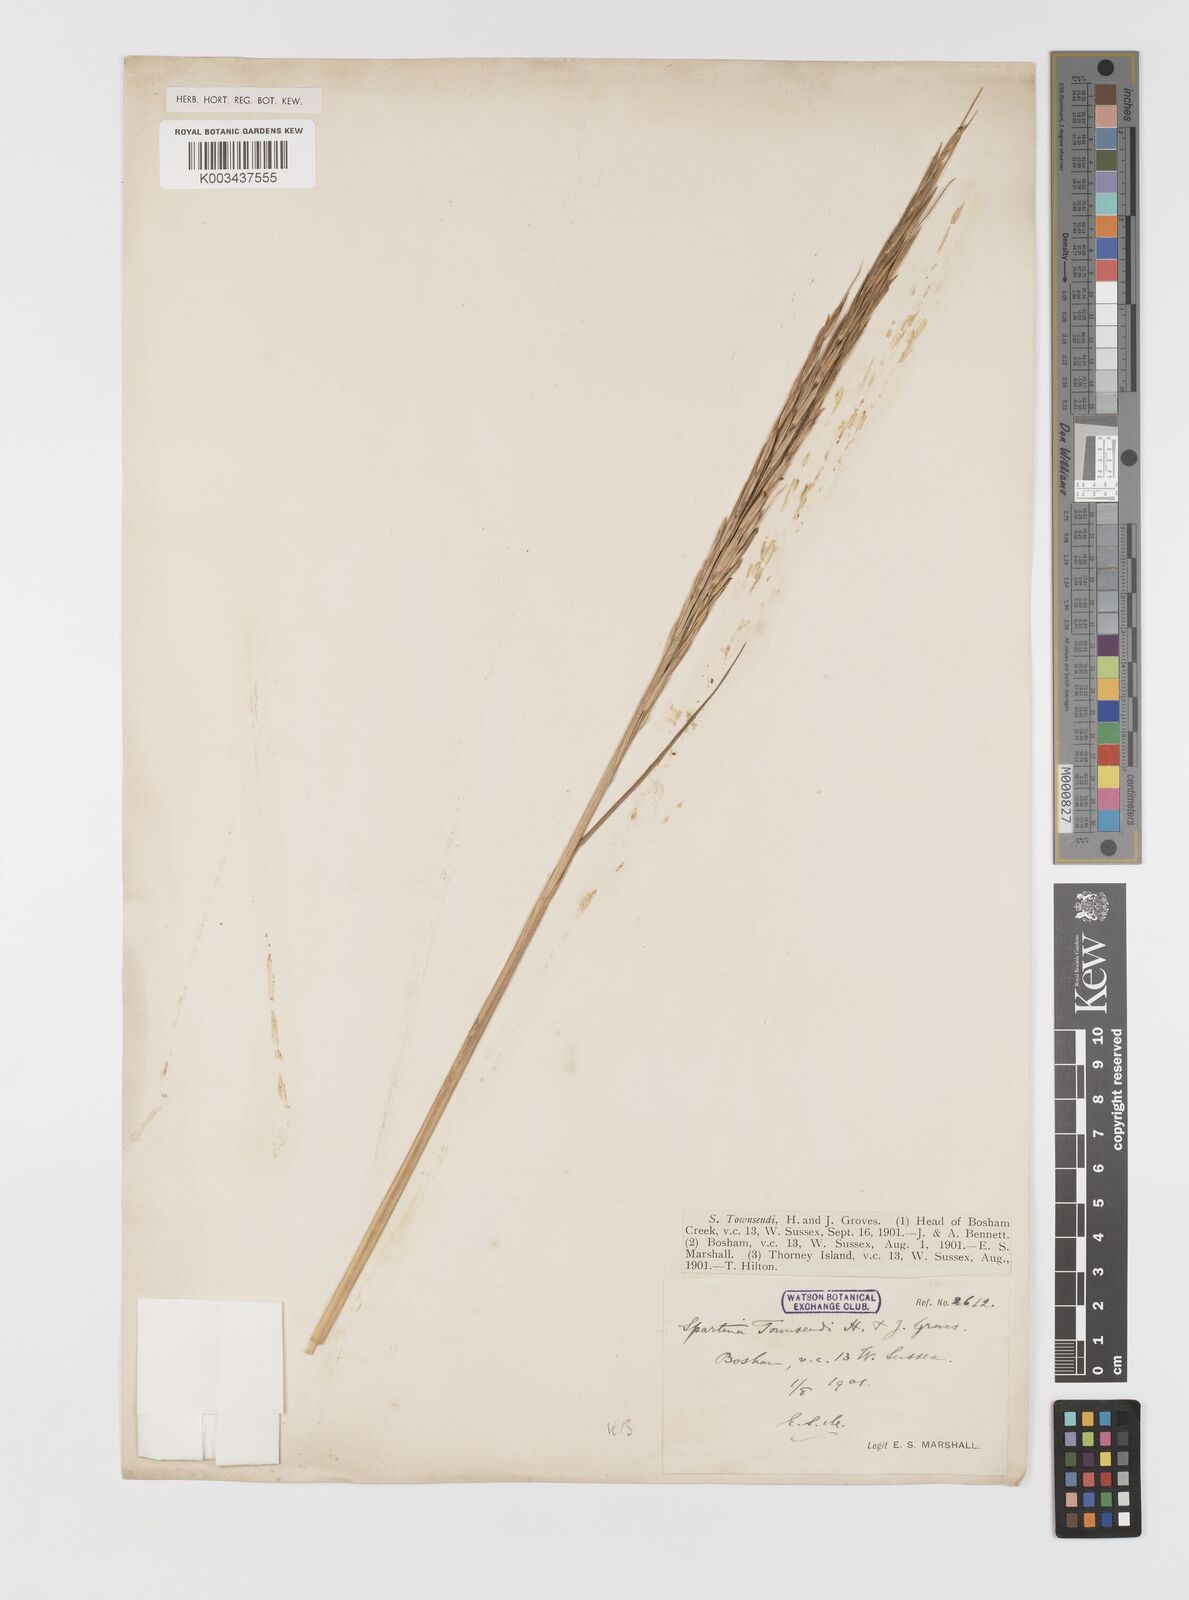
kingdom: Plantae
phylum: Tracheophyta
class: Liliopsida
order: Poales
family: Poaceae
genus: Sporobolus
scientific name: Sporobolus anglicus
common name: English cordgrass
